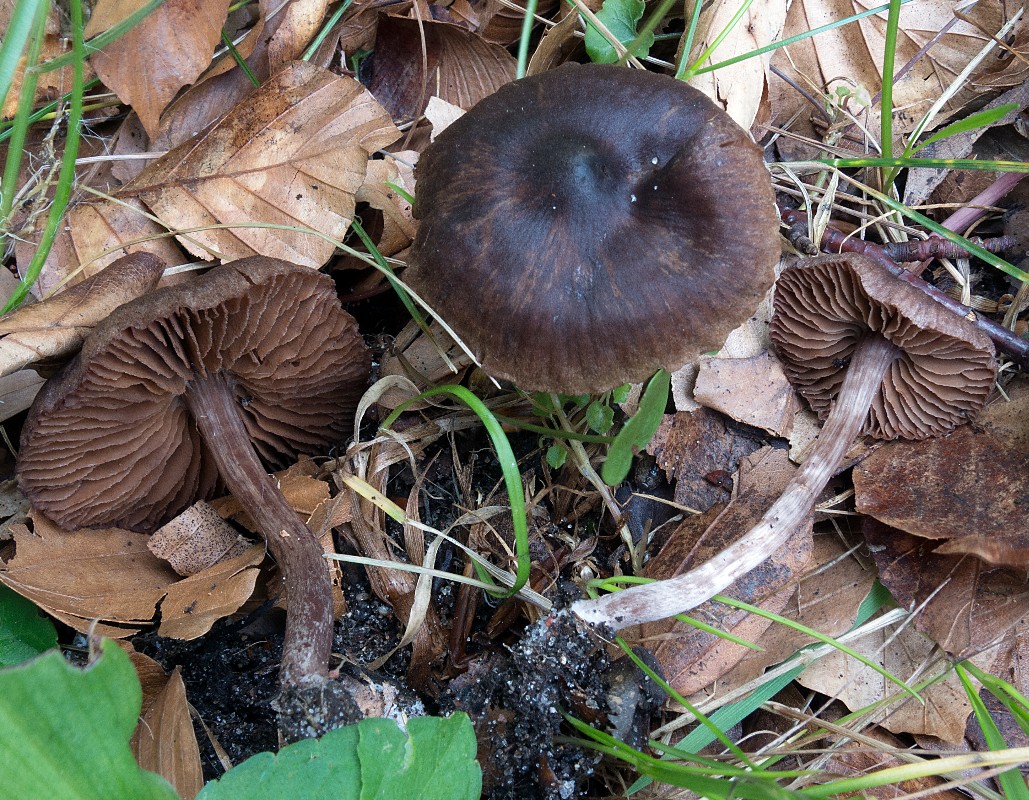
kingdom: Fungi
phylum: Basidiomycota
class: Agaricomycetes
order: Agaricales
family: Cortinariaceae
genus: Cortinarius
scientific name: Cortinarius suberythrinus
